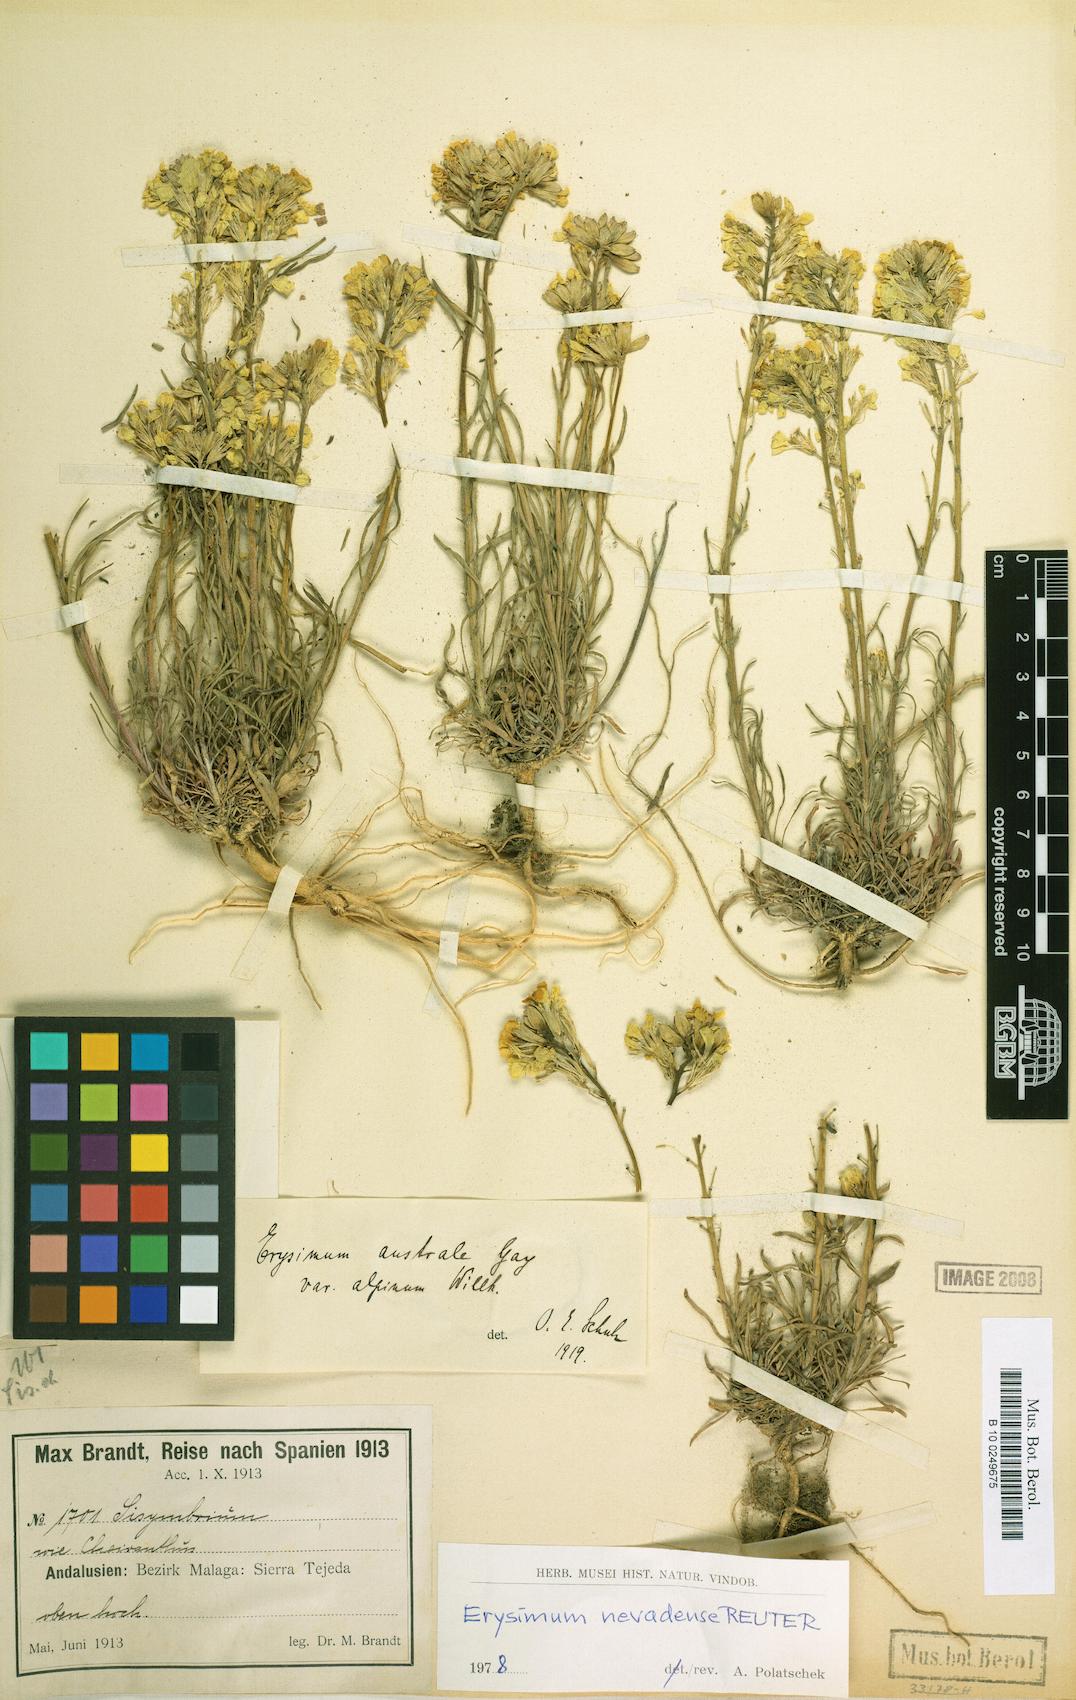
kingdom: Plantae
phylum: Tracheophyta
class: Magnoliopsida
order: Brassicales
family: Brassicaceae
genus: Erysimum
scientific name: Erysimum perenne
